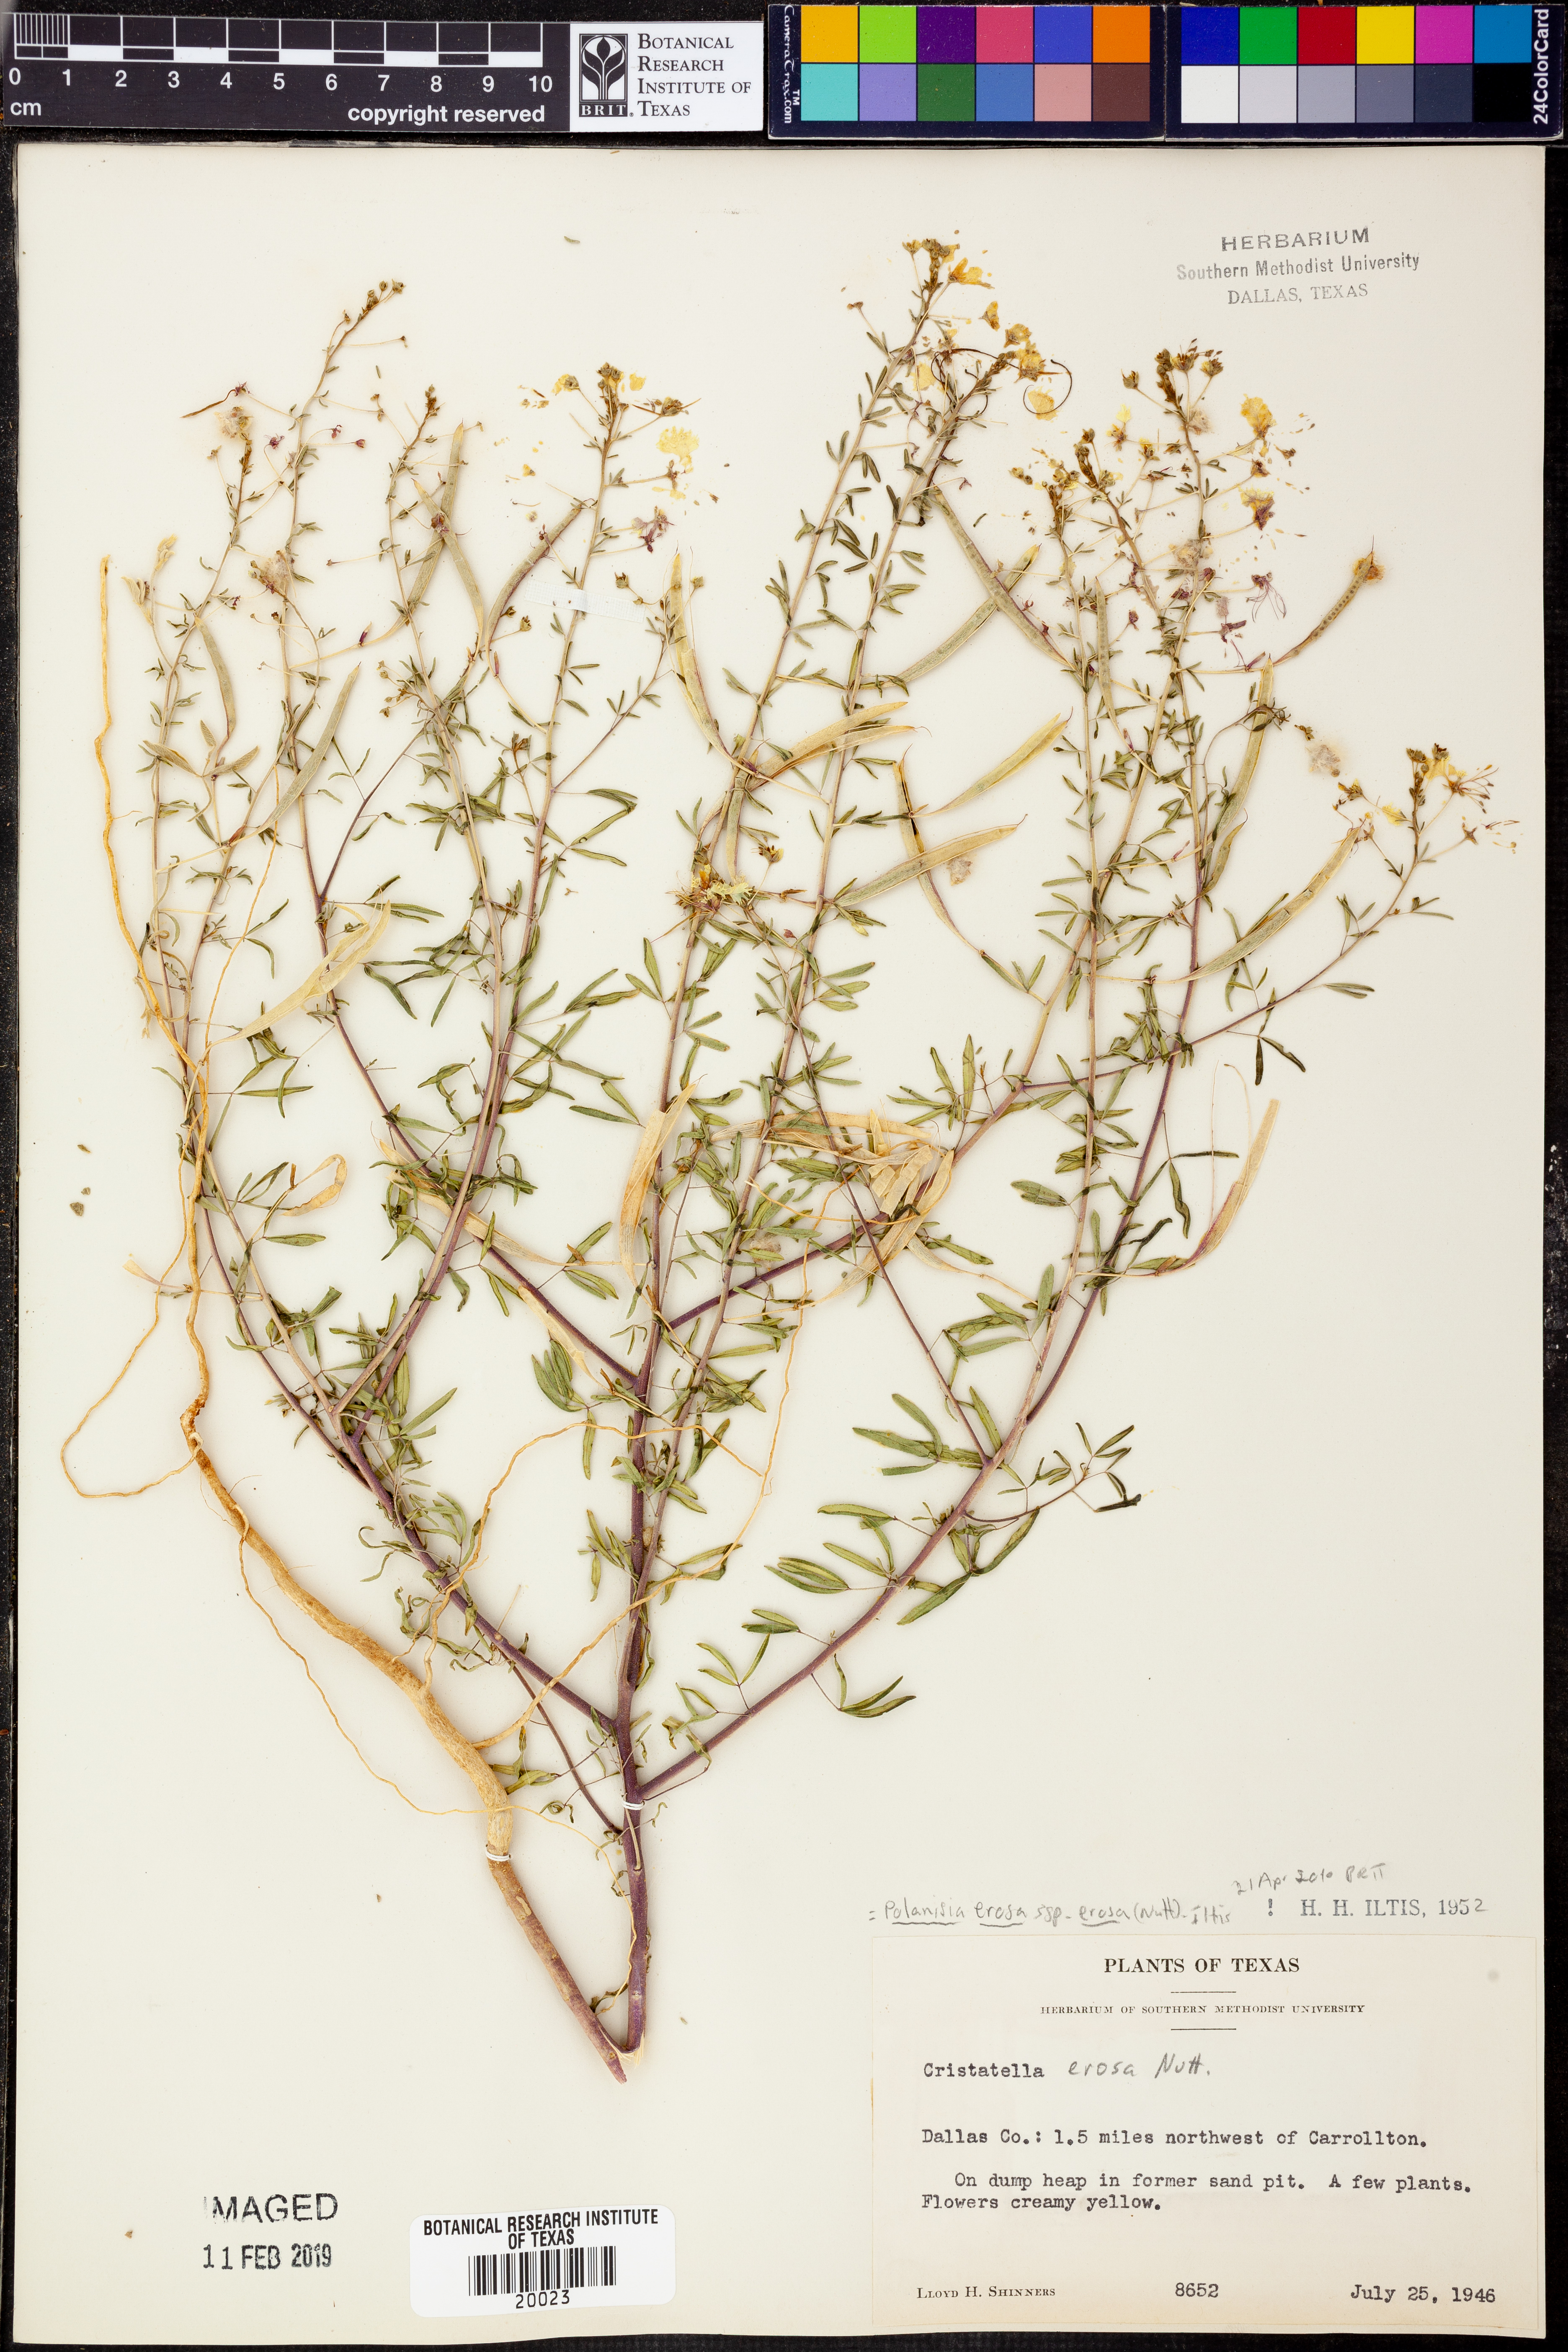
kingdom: Plantae
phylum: Tracheophyta
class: Magnoliopsida
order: Brassicales
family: Cleomaceae
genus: Polanisia
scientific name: Polanisia erosa
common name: Large clammyweed
